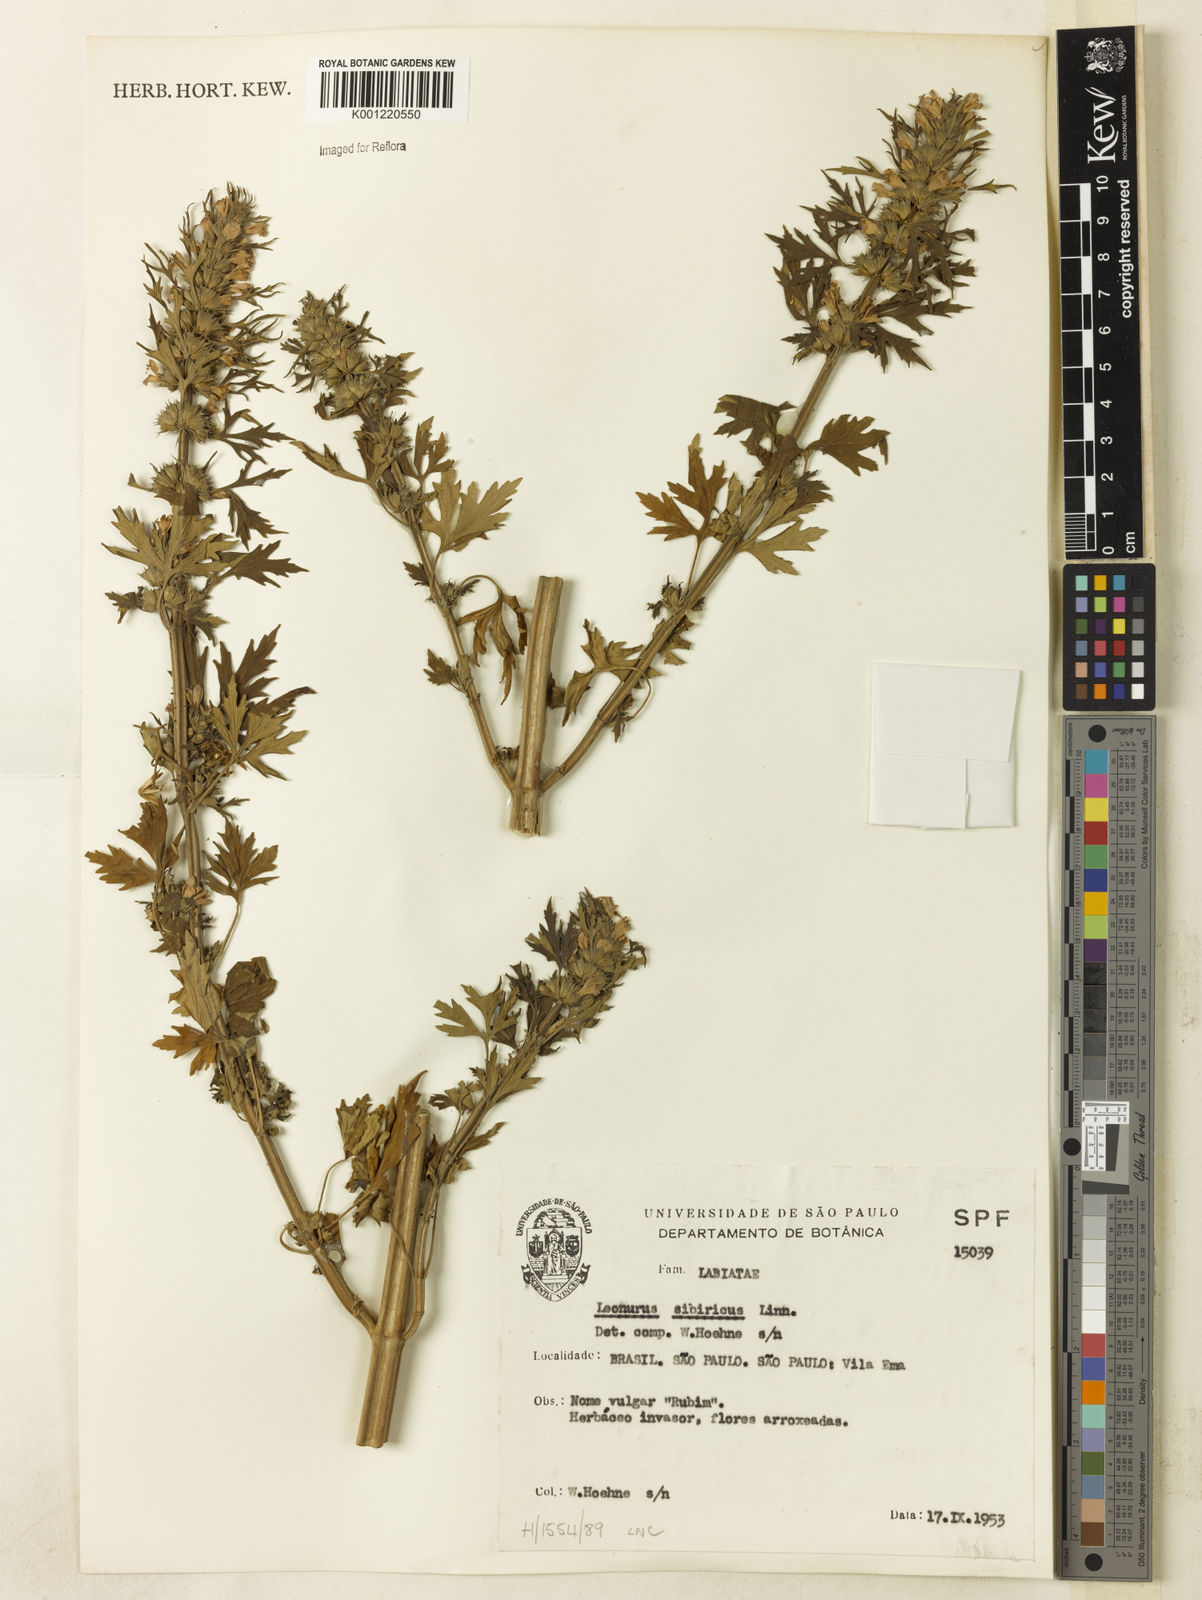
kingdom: Plantae
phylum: Tracheophyta
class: Magnoliopsida
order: Lamiales
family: Lamiaceae
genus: Leonurus
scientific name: Leonurus japonicus
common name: Honeyweed
